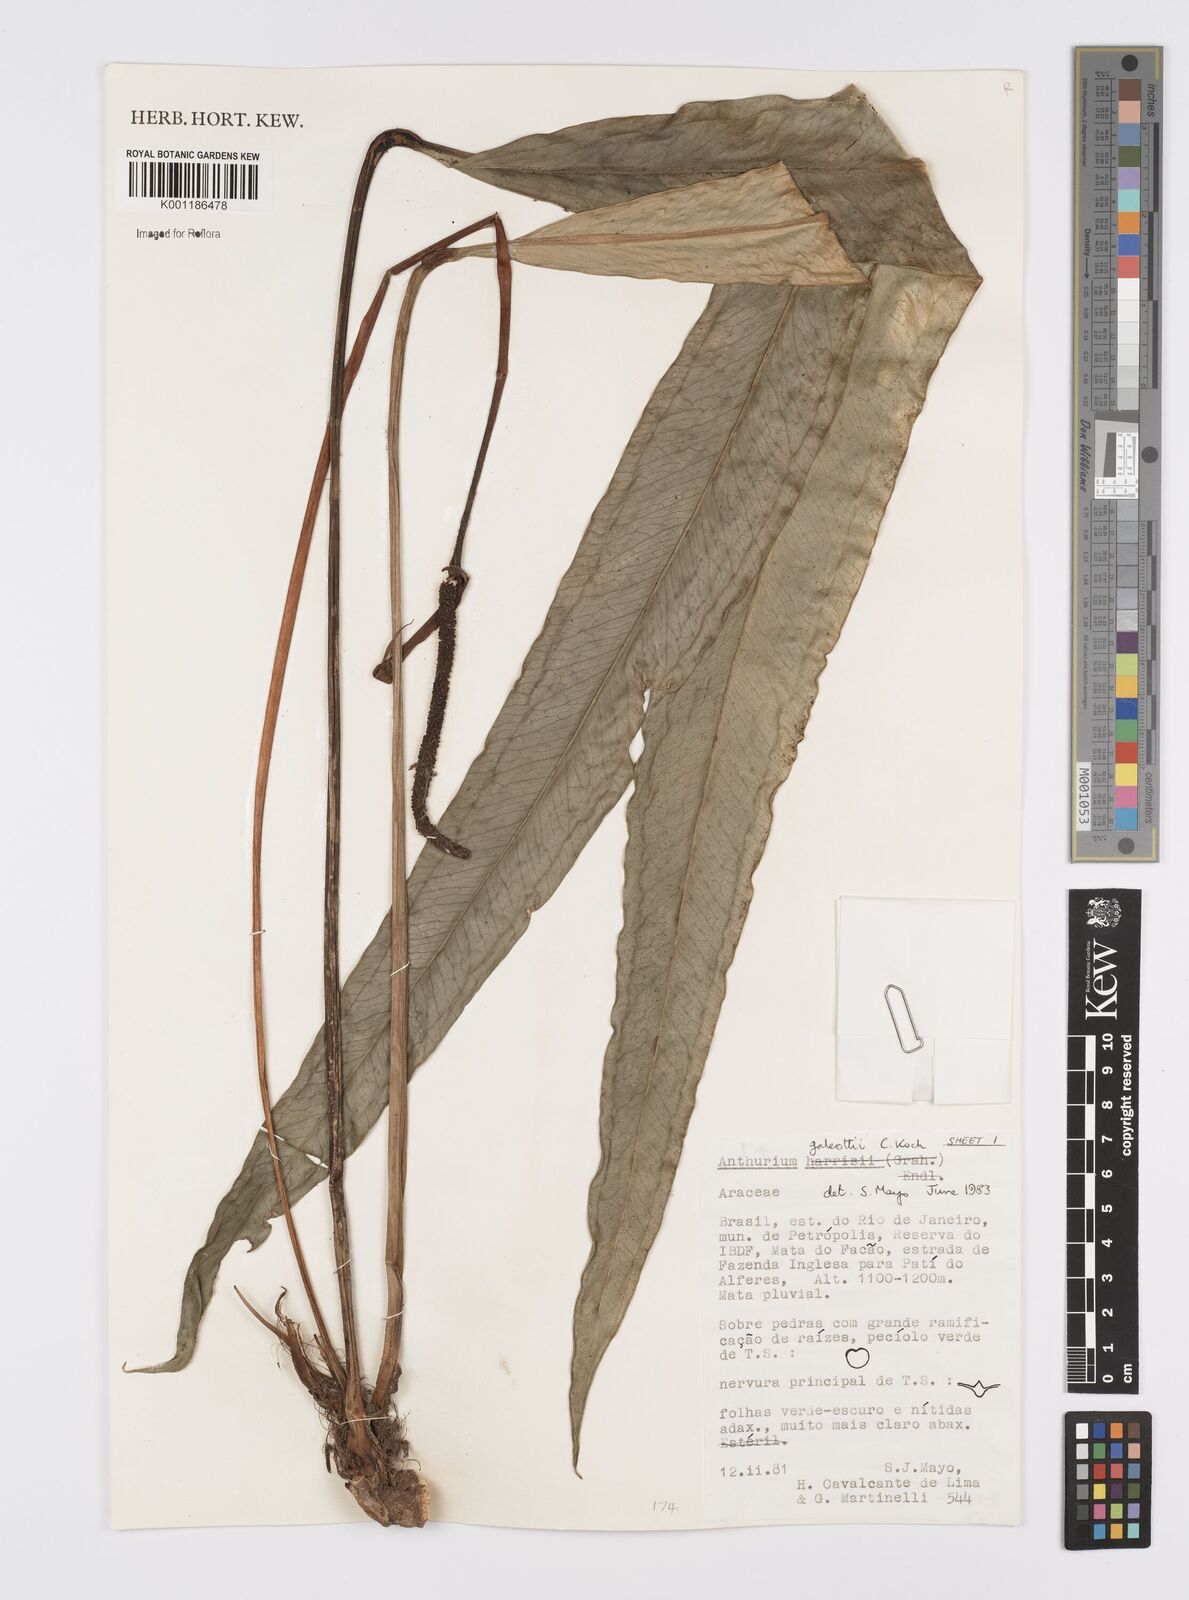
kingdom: Plantae
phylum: Tracheophyta
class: Liliopsida
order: Alismatales
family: Araceae
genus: Anthurium
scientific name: Anthurium galeottii
